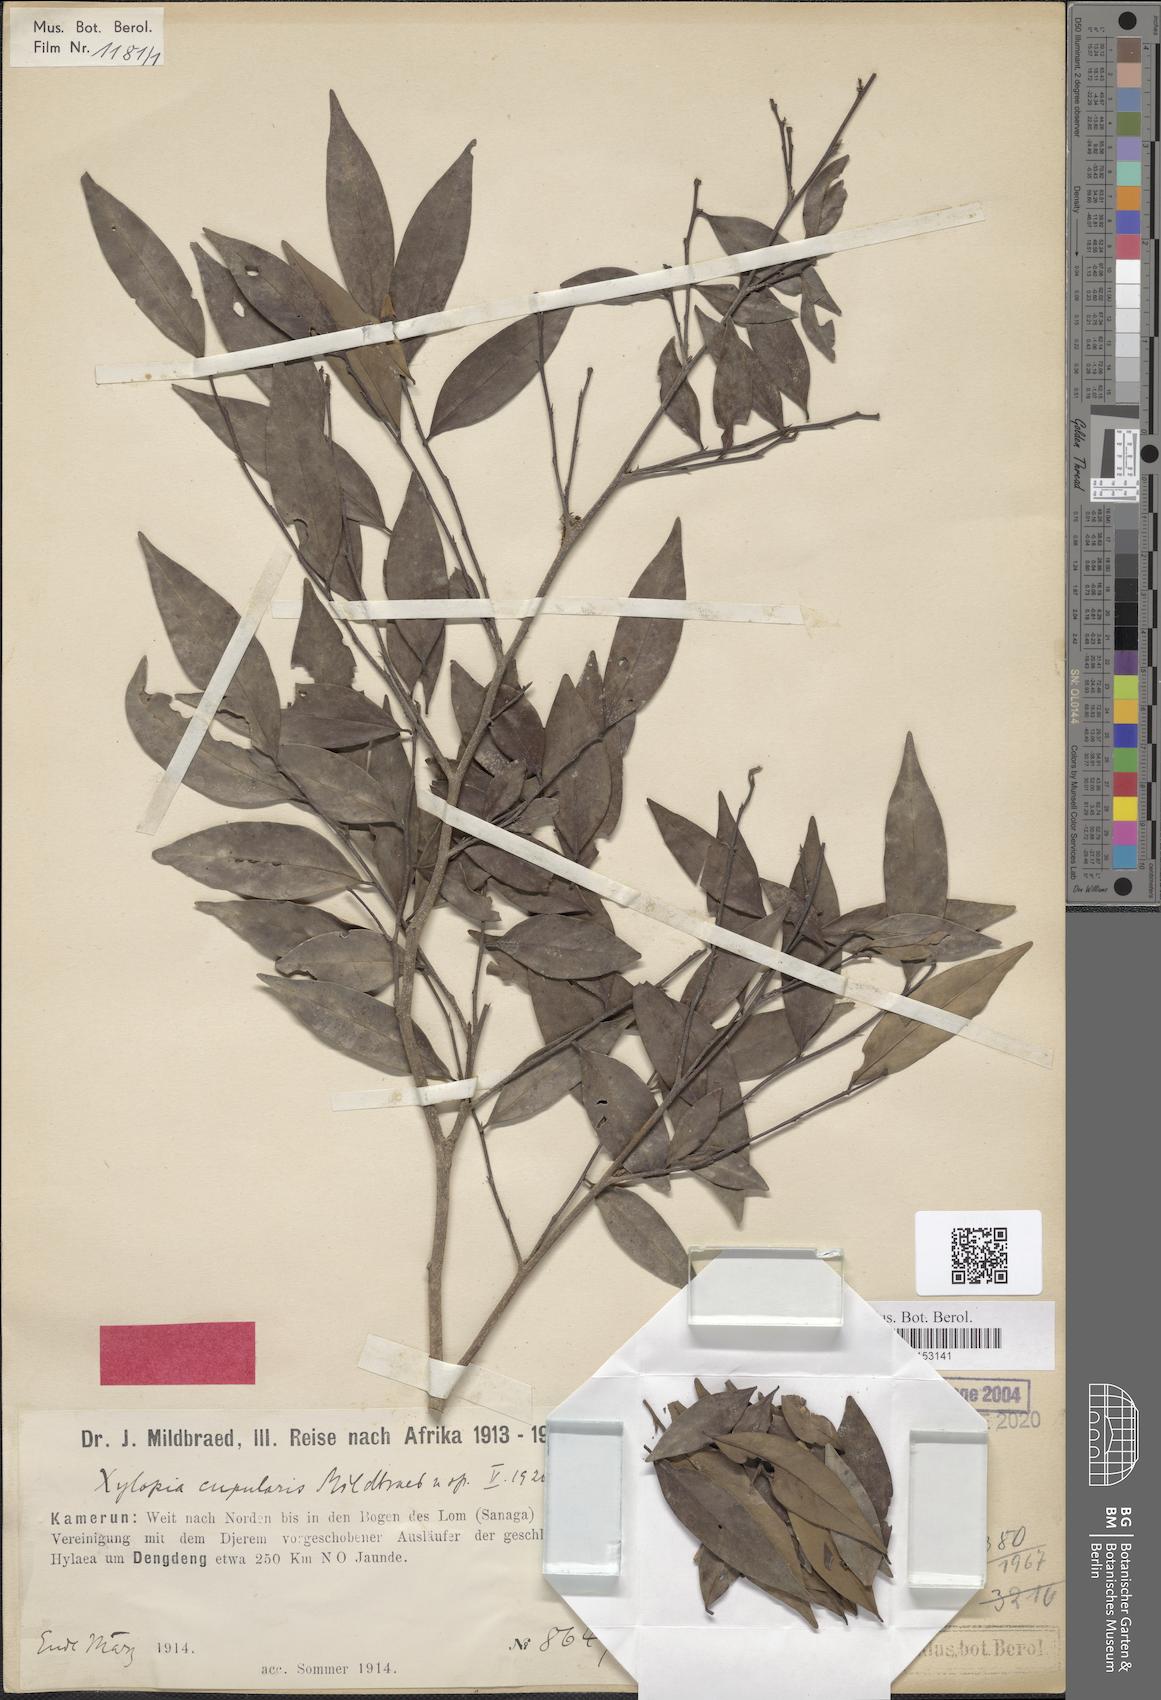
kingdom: Plantae
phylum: Tracheophyta
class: Magnoliopsida
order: Magnoliales
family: Annonaceae
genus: Xylopia
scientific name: Xylopia cupularis
